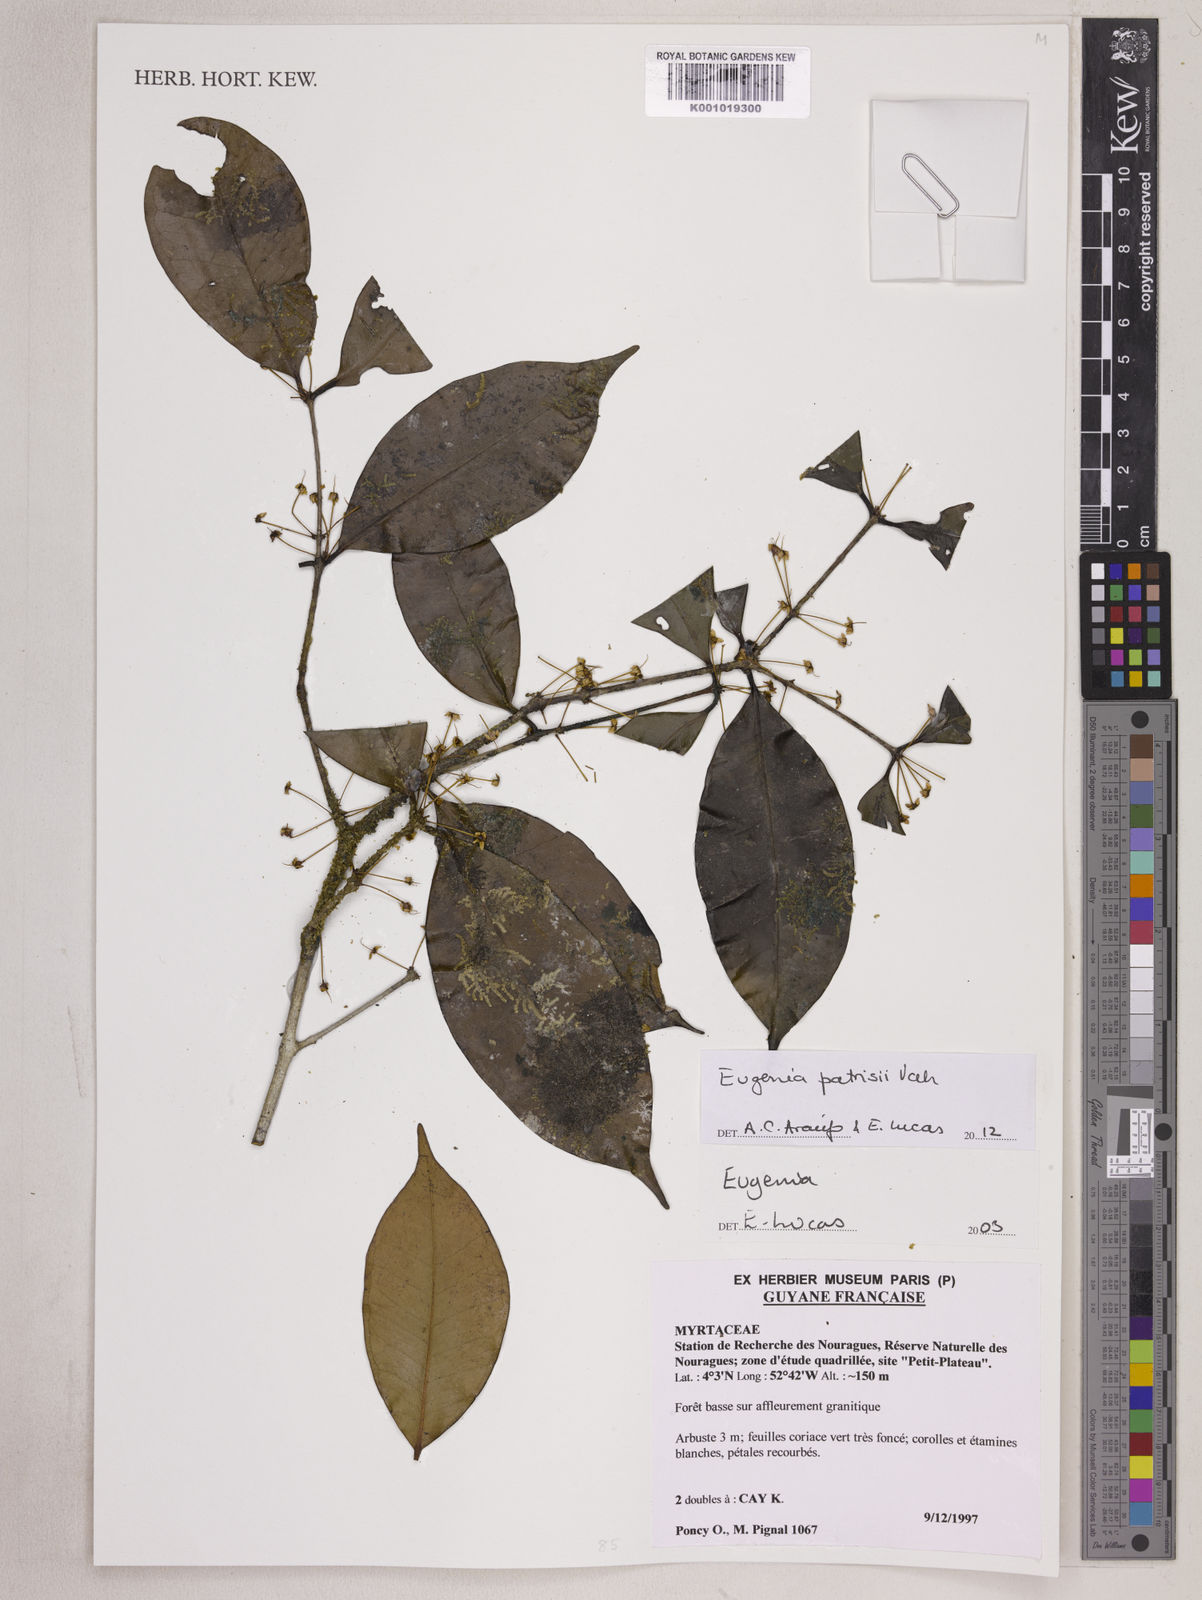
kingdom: Plantae
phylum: Tracheophyta
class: Magnoliopsida
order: Myrtales
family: Myrtaceae
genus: Eugenia
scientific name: Eugenia patrisii
